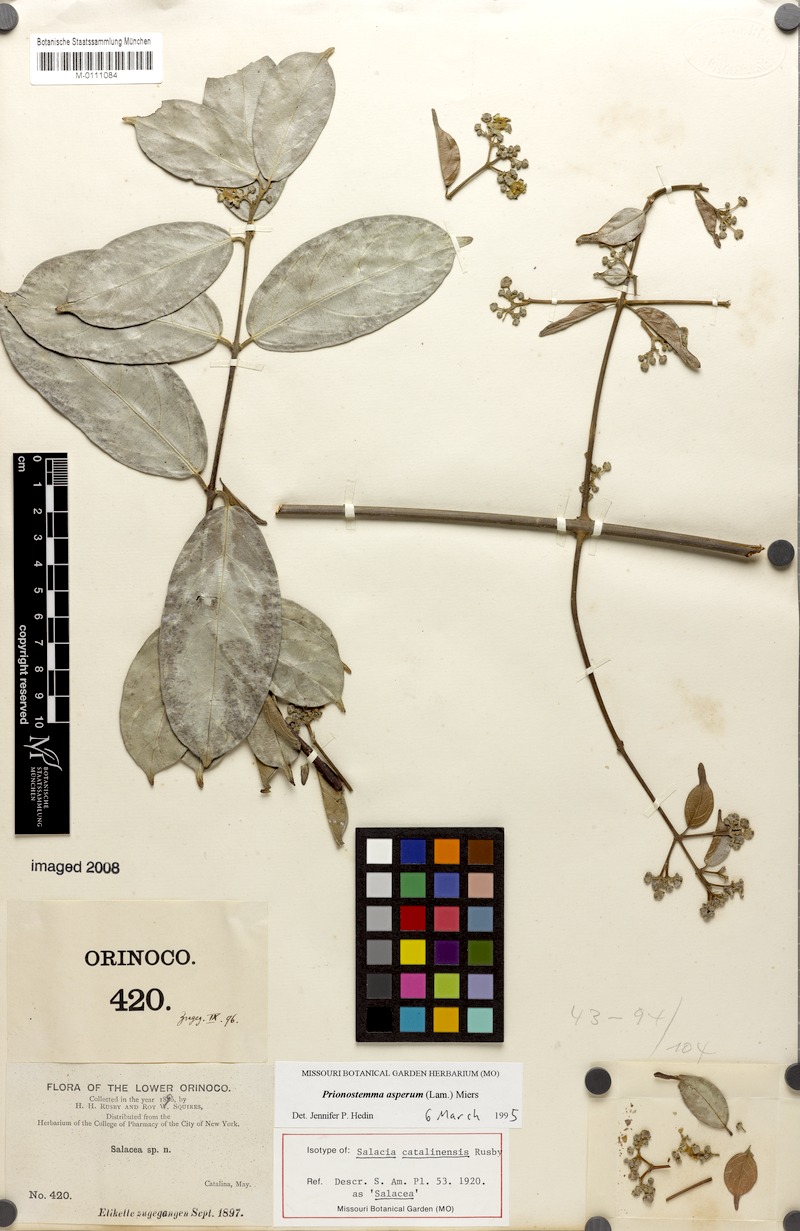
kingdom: Plantae
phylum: Tracheophyta
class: Magnoliopsida
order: Celastrales
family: Celastraceae
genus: Prionostemma
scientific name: Prionostemma aspera
